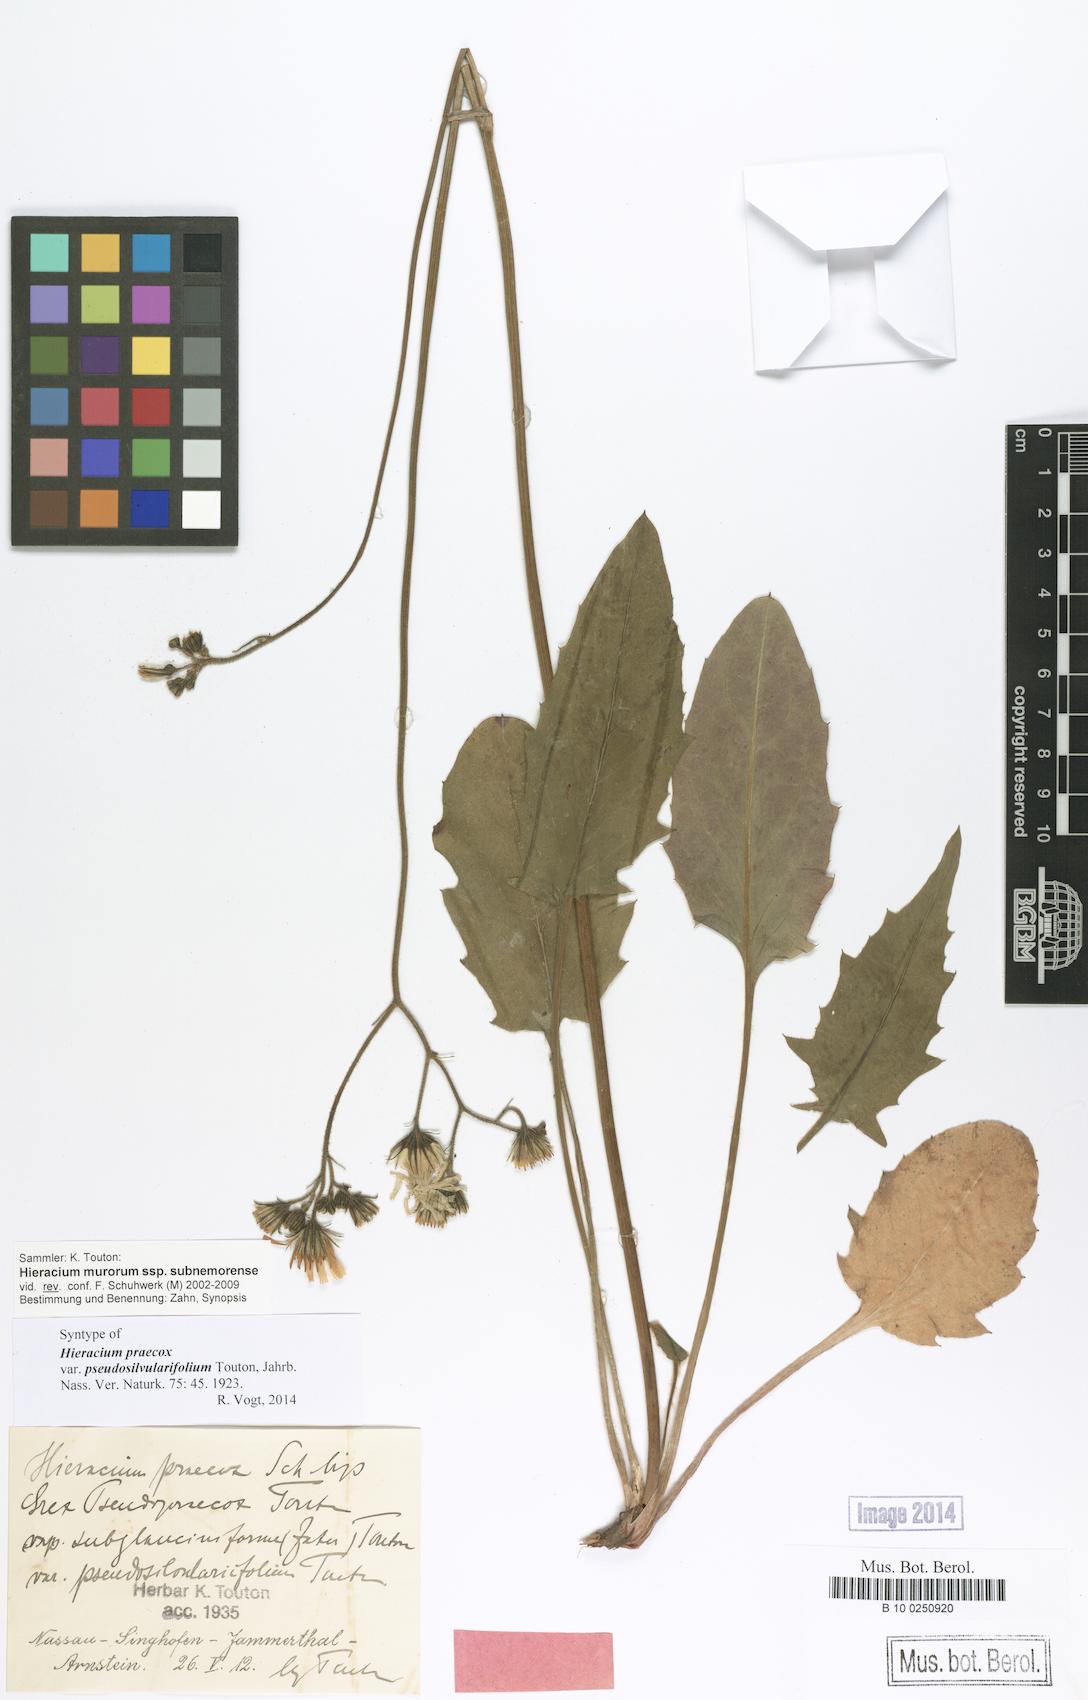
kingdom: Plantae
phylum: Tracheophyta
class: Magnoliopsida
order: Asterales
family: Asteraceae
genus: Hieracium
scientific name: Hieracium praecox
